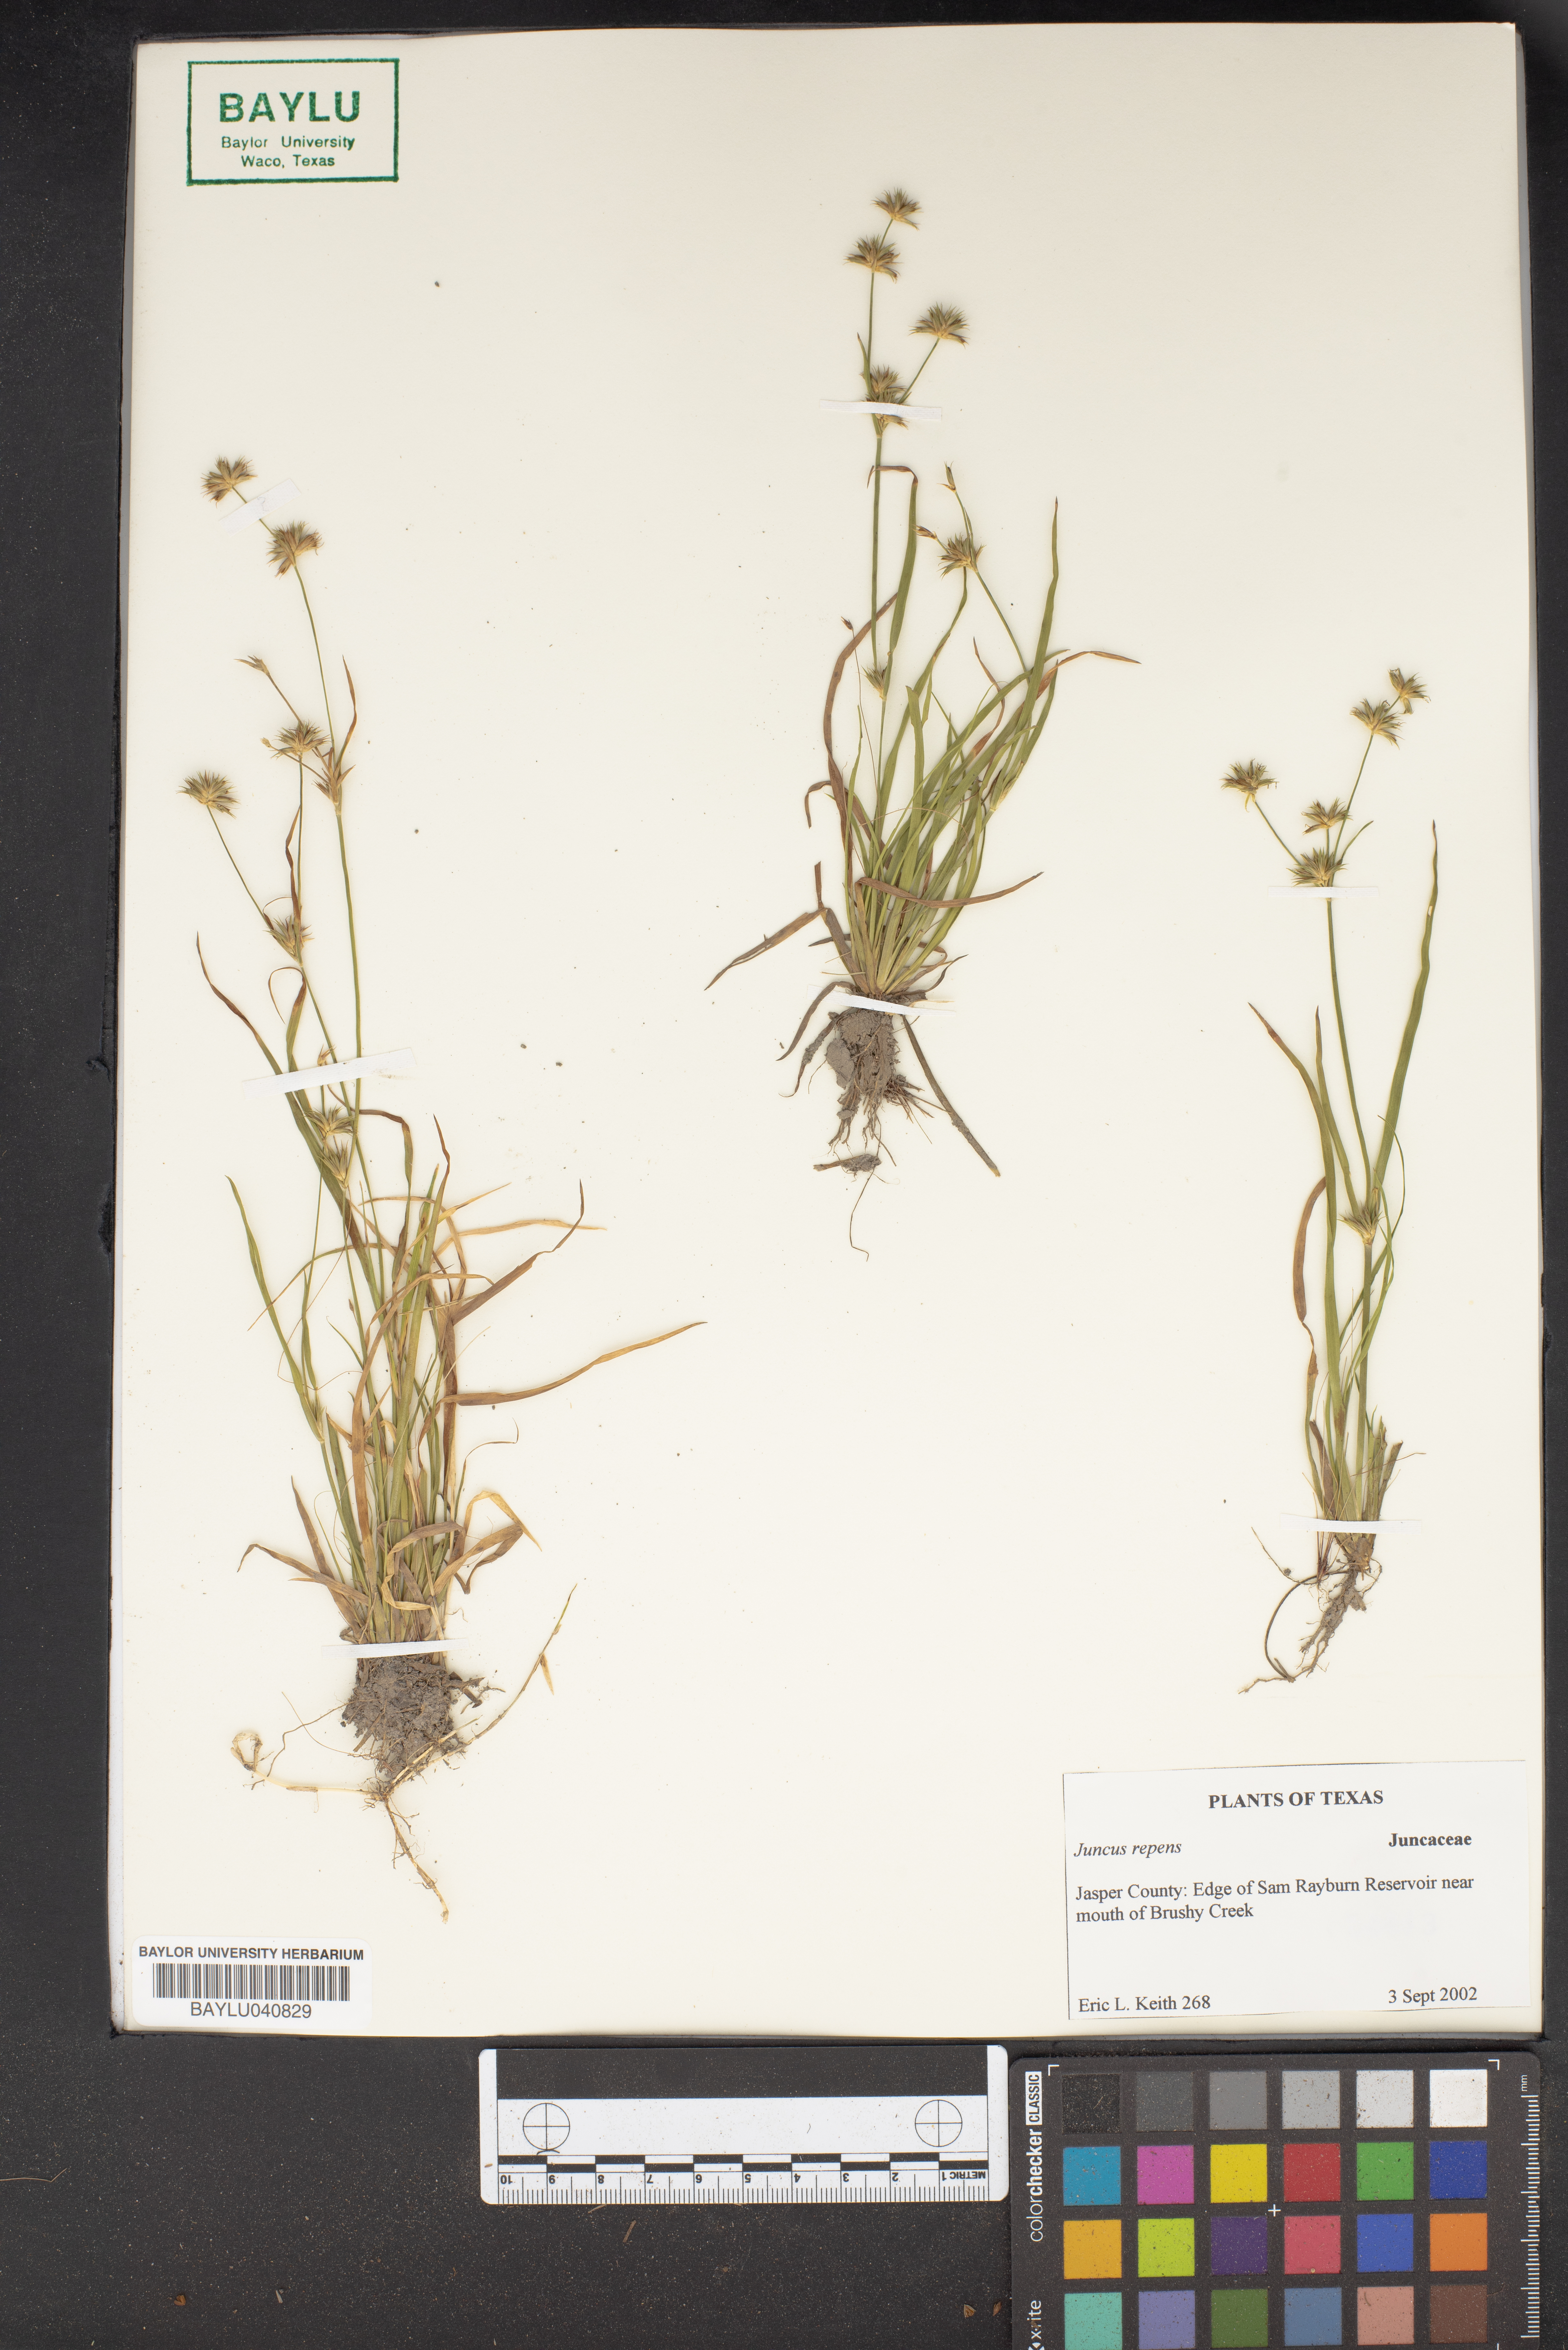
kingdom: Plantae
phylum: Tracheophyta
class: Liliopsida
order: Poales
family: Juncaceae
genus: Juncus
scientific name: Juncus repens
